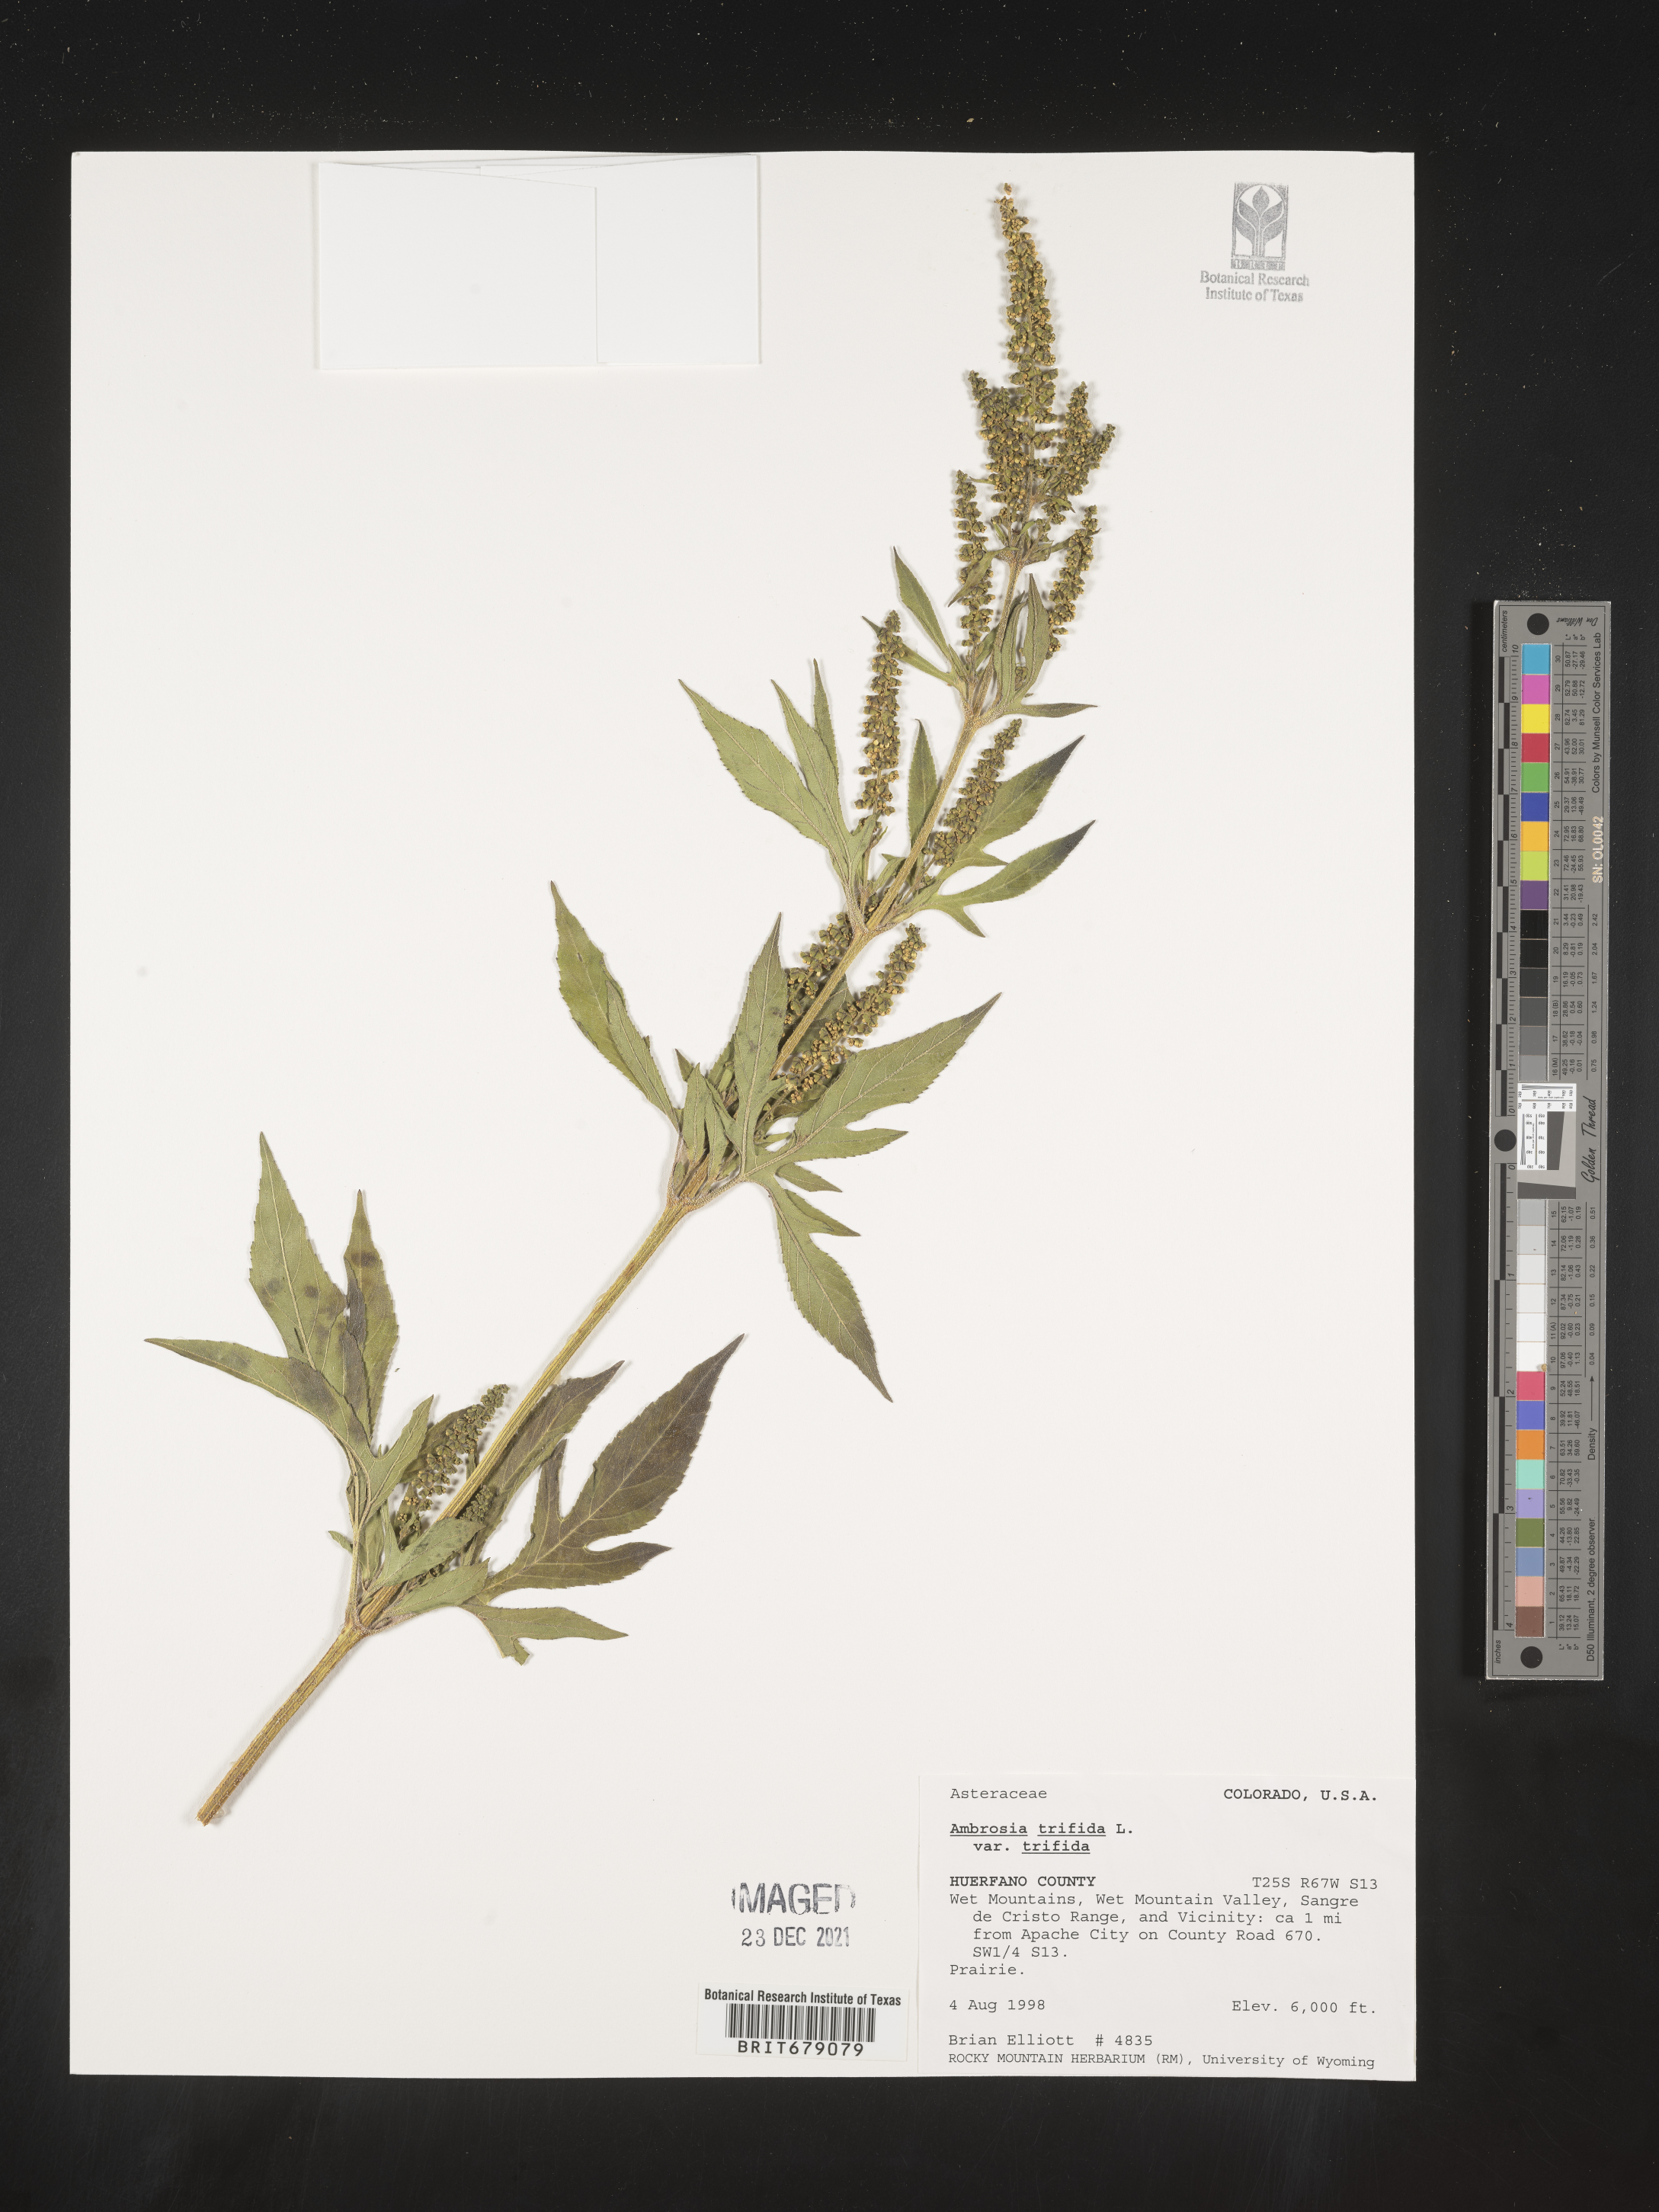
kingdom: Plantae
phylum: Tracheophyta
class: Magnoliopsida
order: Asterales
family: Asteraceae
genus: Ambrosia
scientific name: Ambrosia trifida
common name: Giant ragweed
